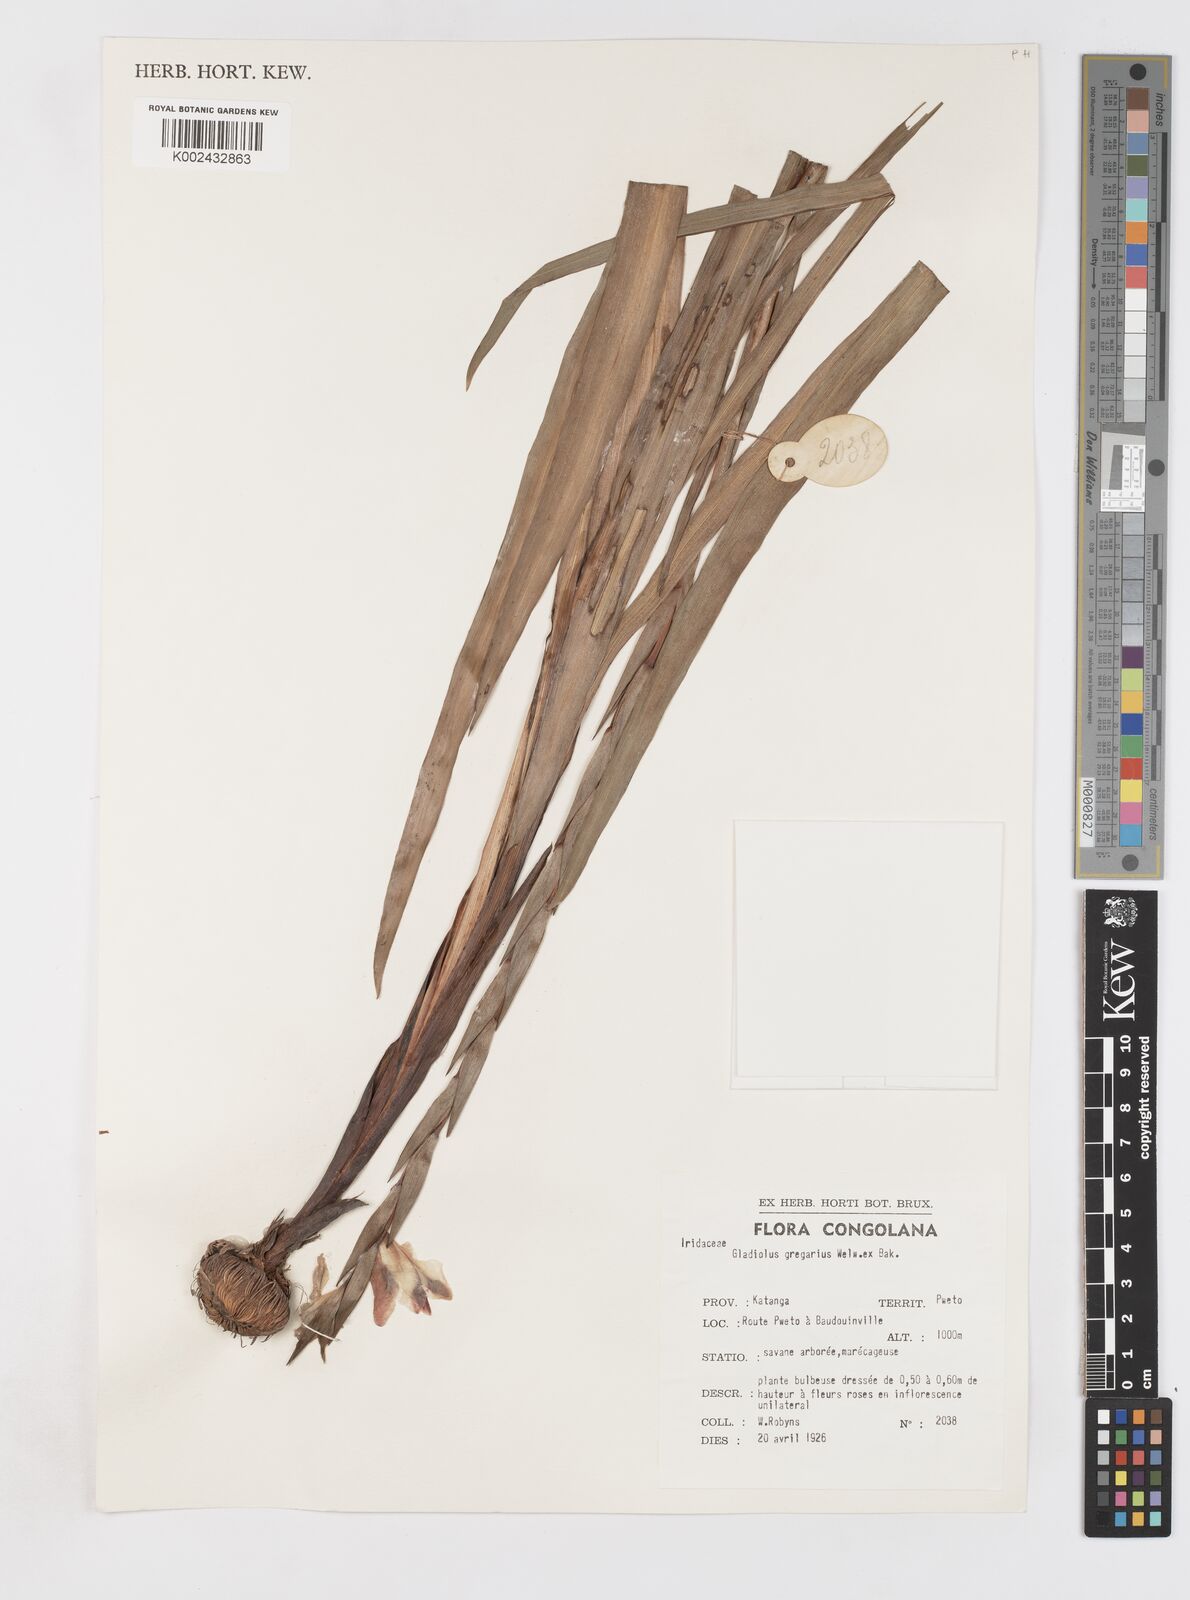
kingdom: Plantae
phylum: Tracheophyta
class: Liliopsida
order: Asparagales
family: Iridaceae
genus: Gladiolus
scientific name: Gladiolus gregarius
